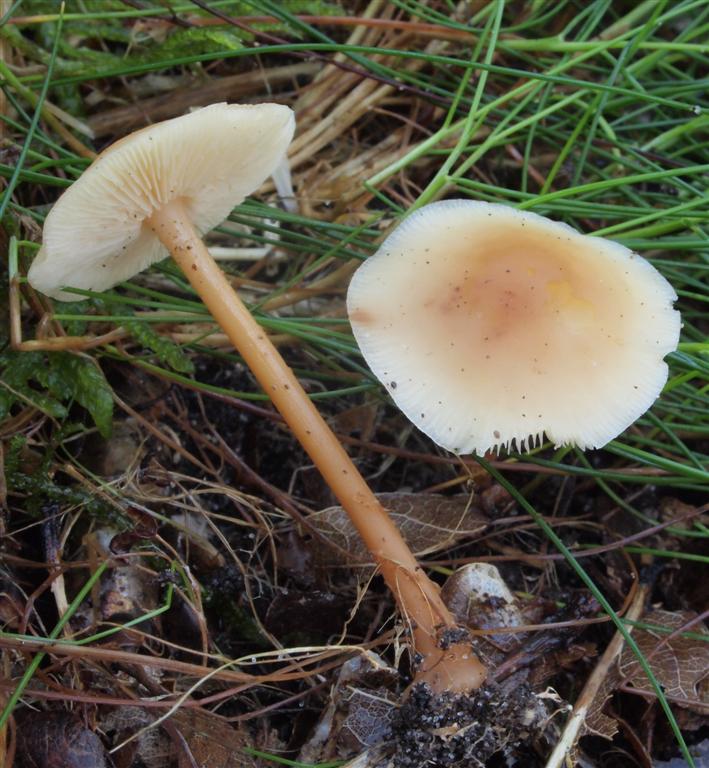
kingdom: Fungi
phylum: Basidiomycota
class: Agaricomycetes
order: Agaricales
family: Omphalotaceae
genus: Gymnopus
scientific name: Gymnopus dryophilus
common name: løv-fladhat
